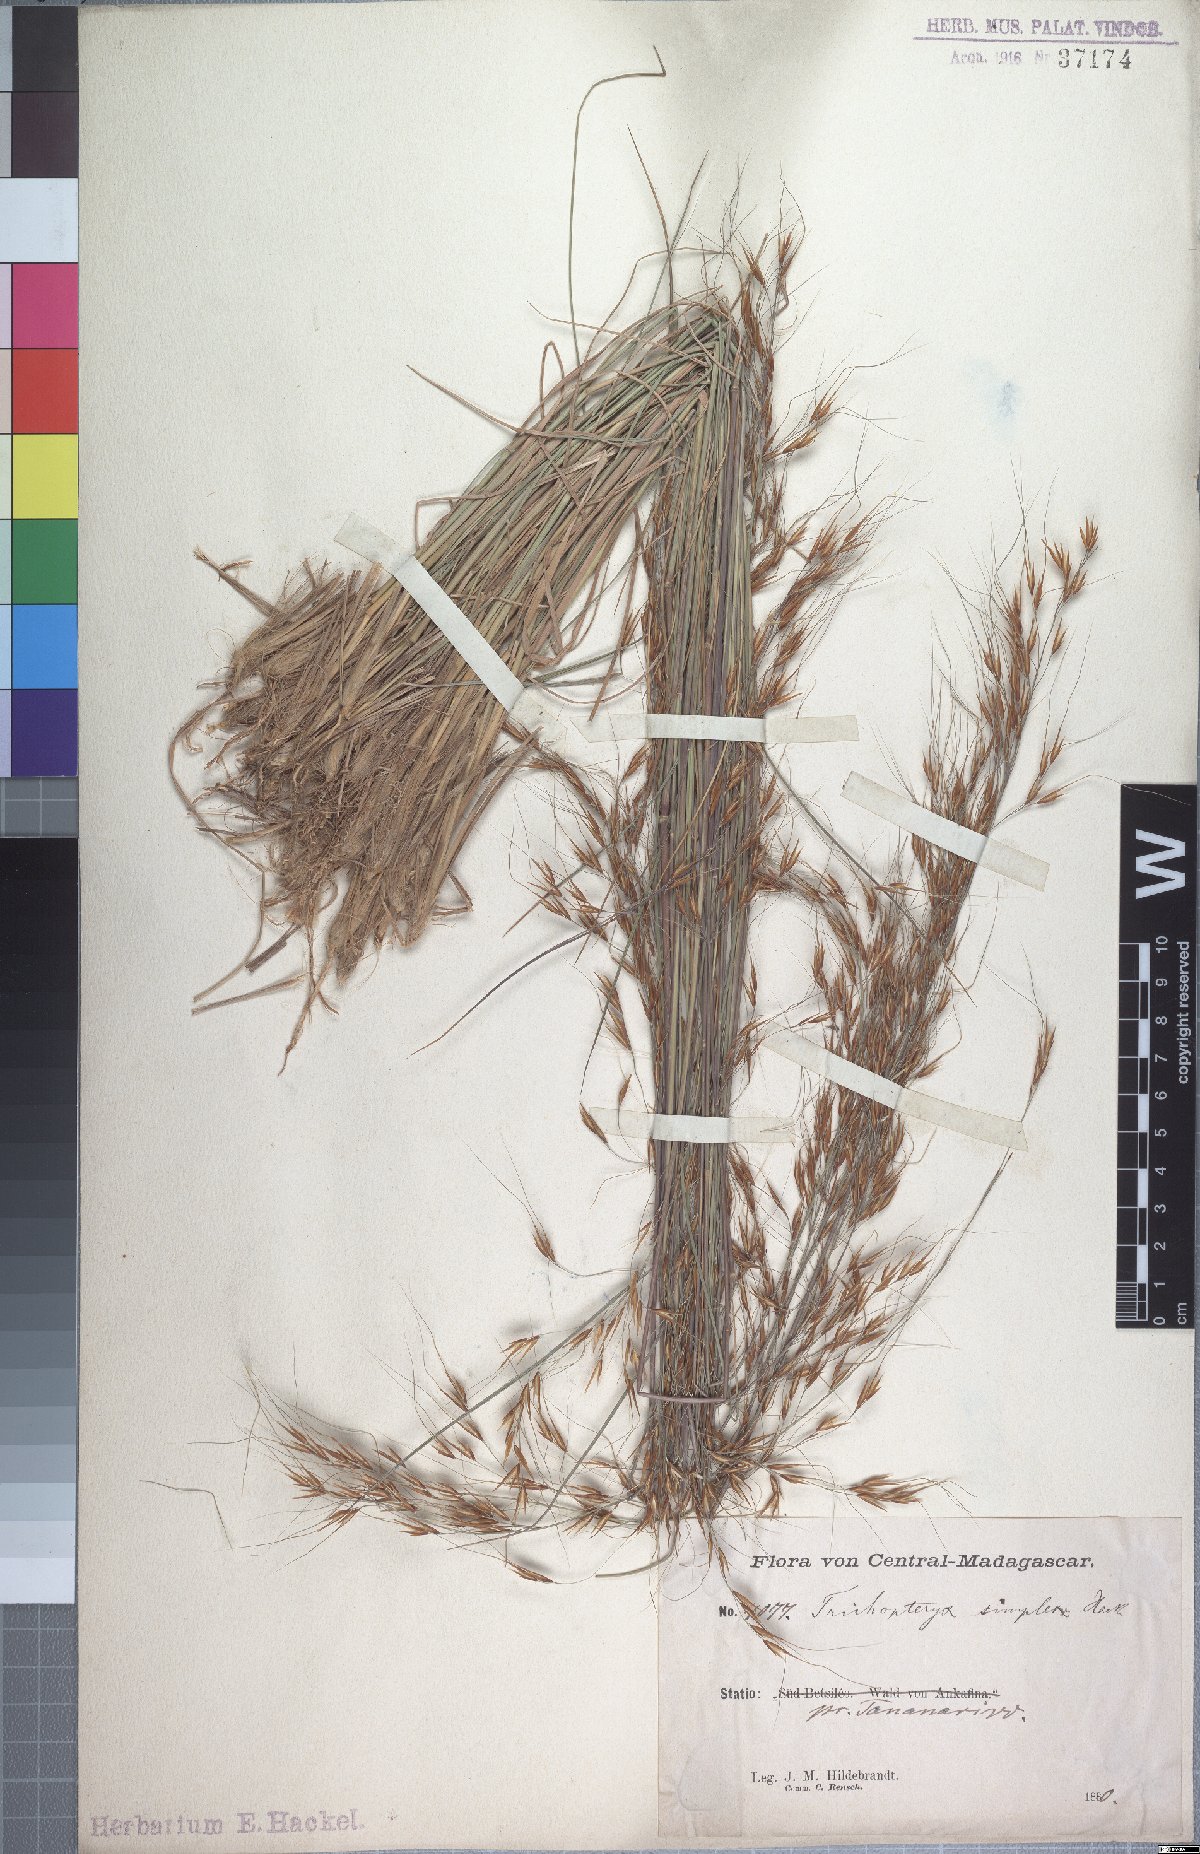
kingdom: Plantae
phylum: Tracheophyta
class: Liliopsida
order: Poales
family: Poaceae
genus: Loudetia
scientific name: Loudetia simplex
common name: Common russet grass
